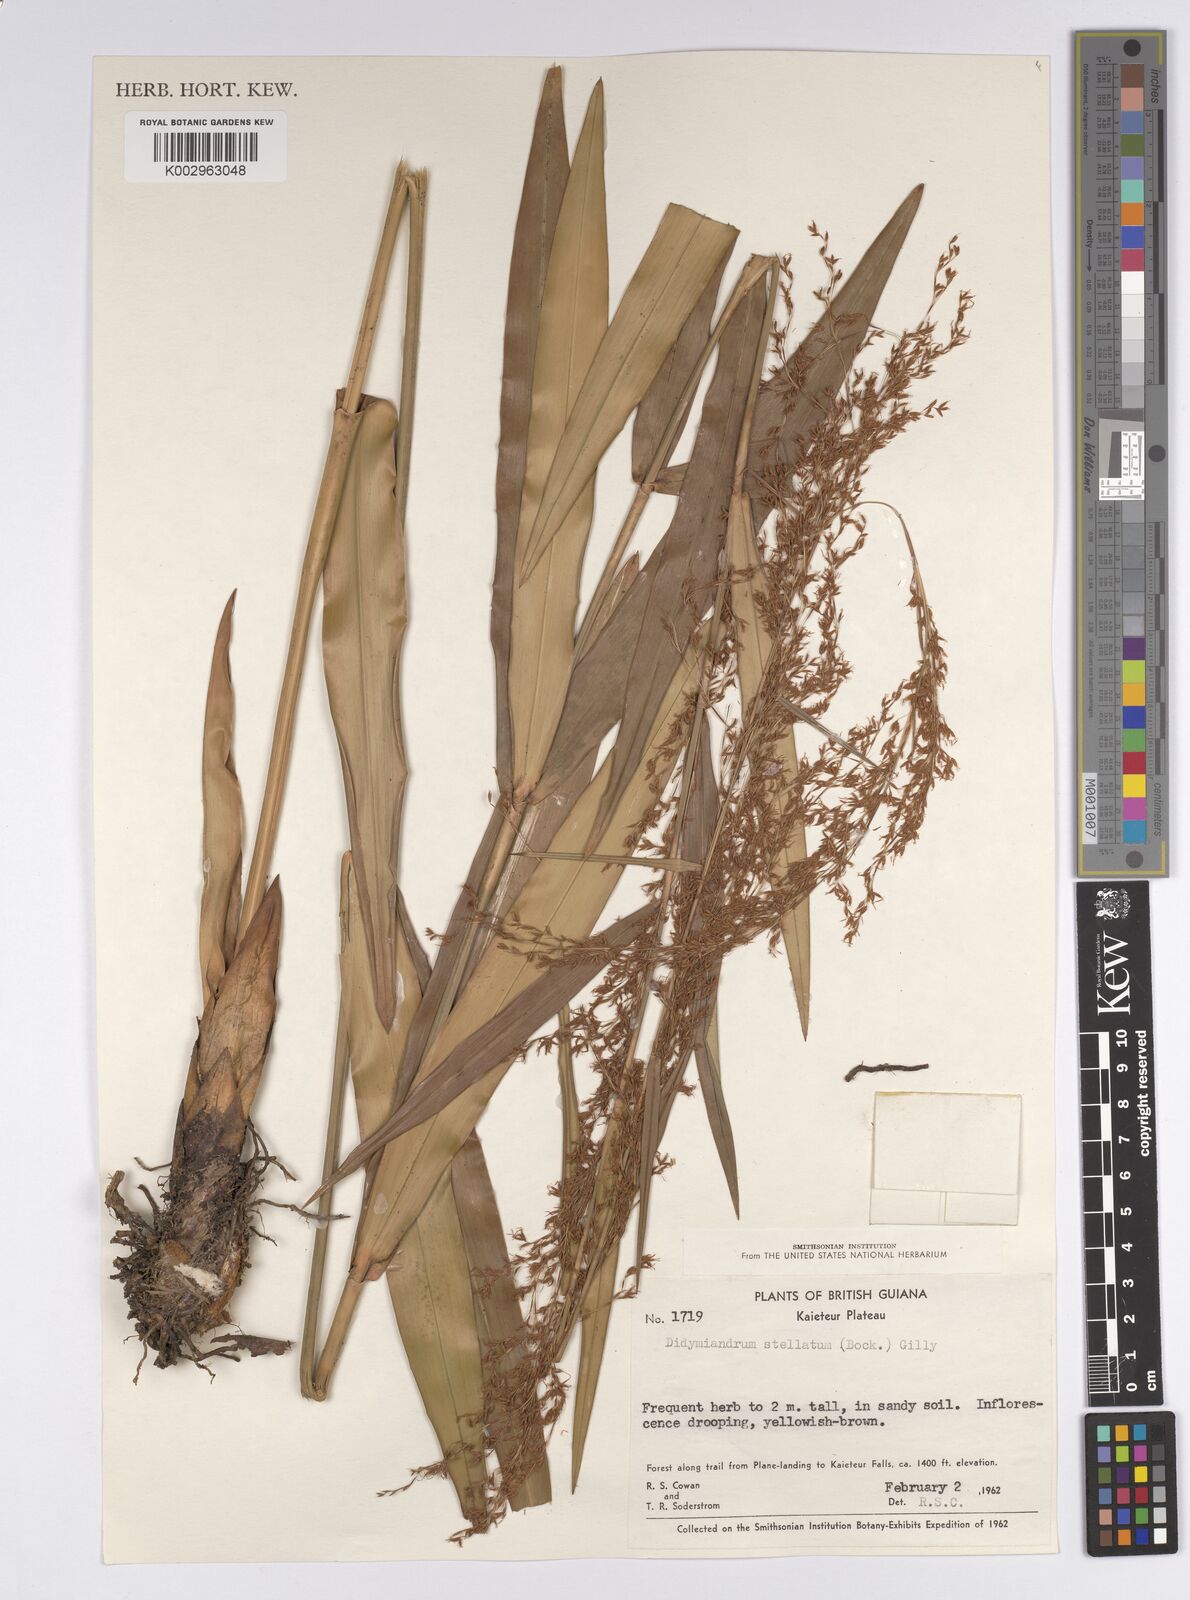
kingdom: Plantae
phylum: Tracheophyta
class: Liliopsida
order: Poales
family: Cyperaceae
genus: Didymiandrum
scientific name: Didymiandrum stellatum
